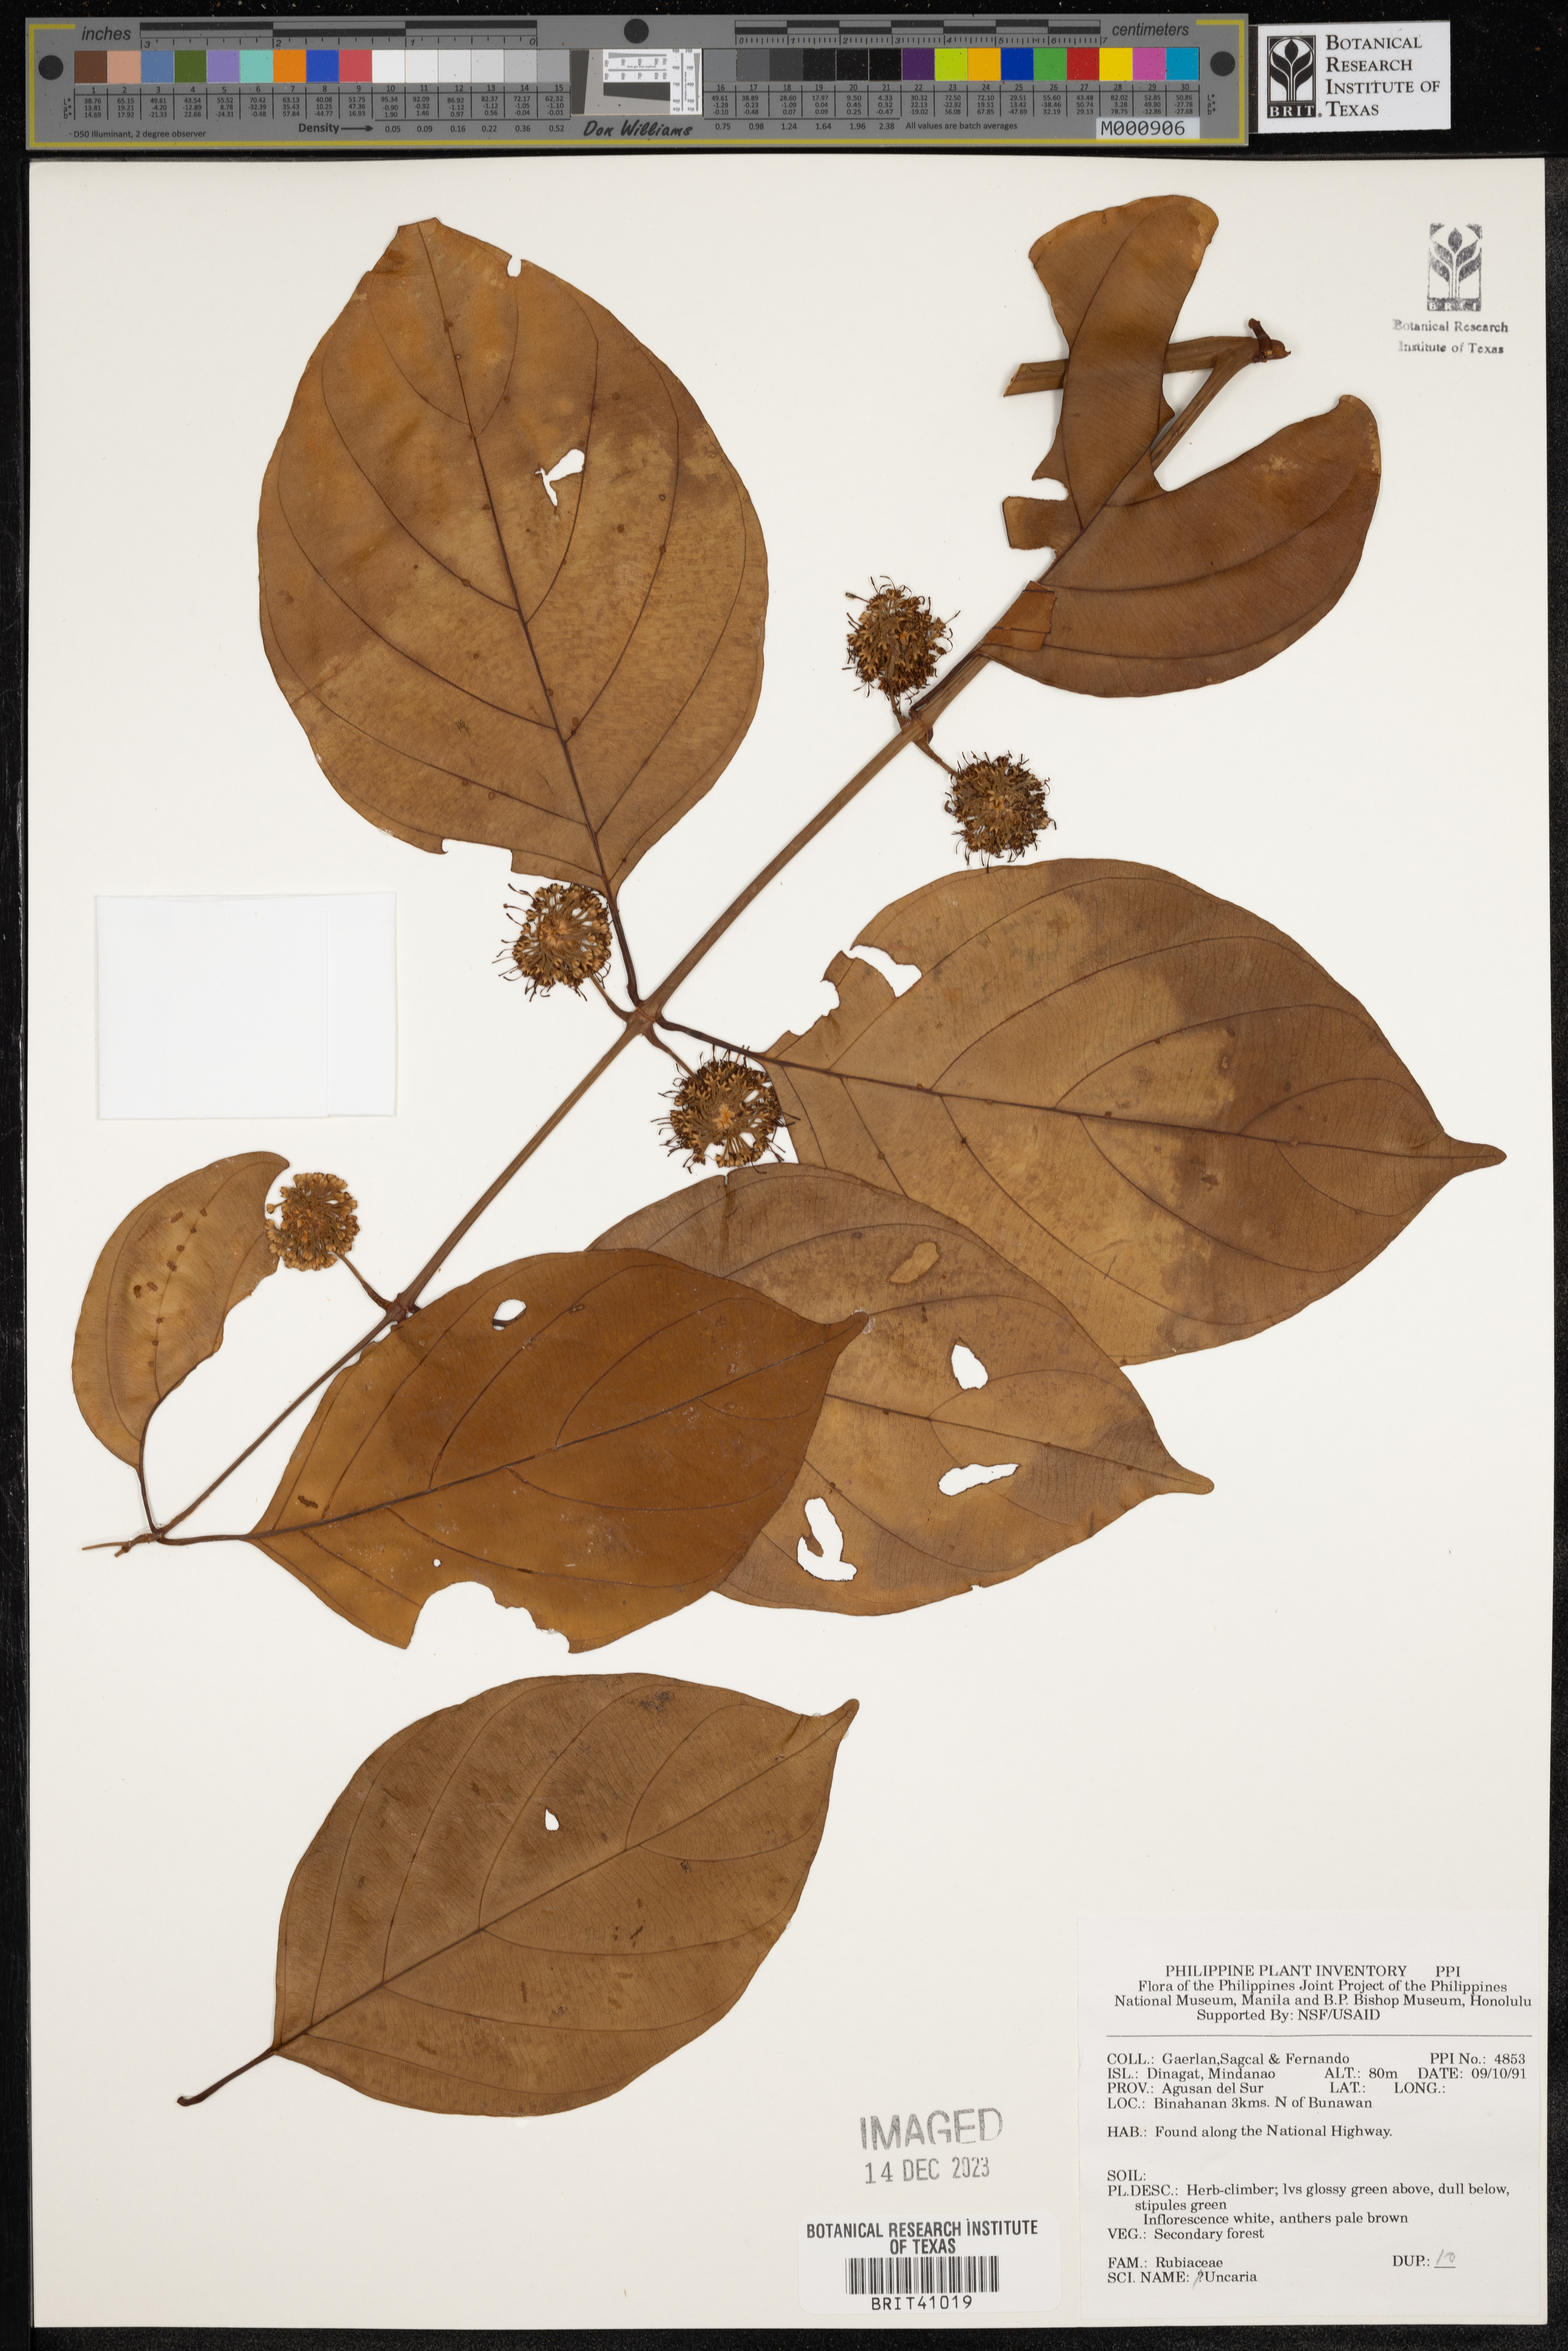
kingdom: Plantae
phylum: Tracheophyta
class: Magnoliopsida
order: Gentianales
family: Rubiaceae
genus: Uncaria
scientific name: Uncaria
